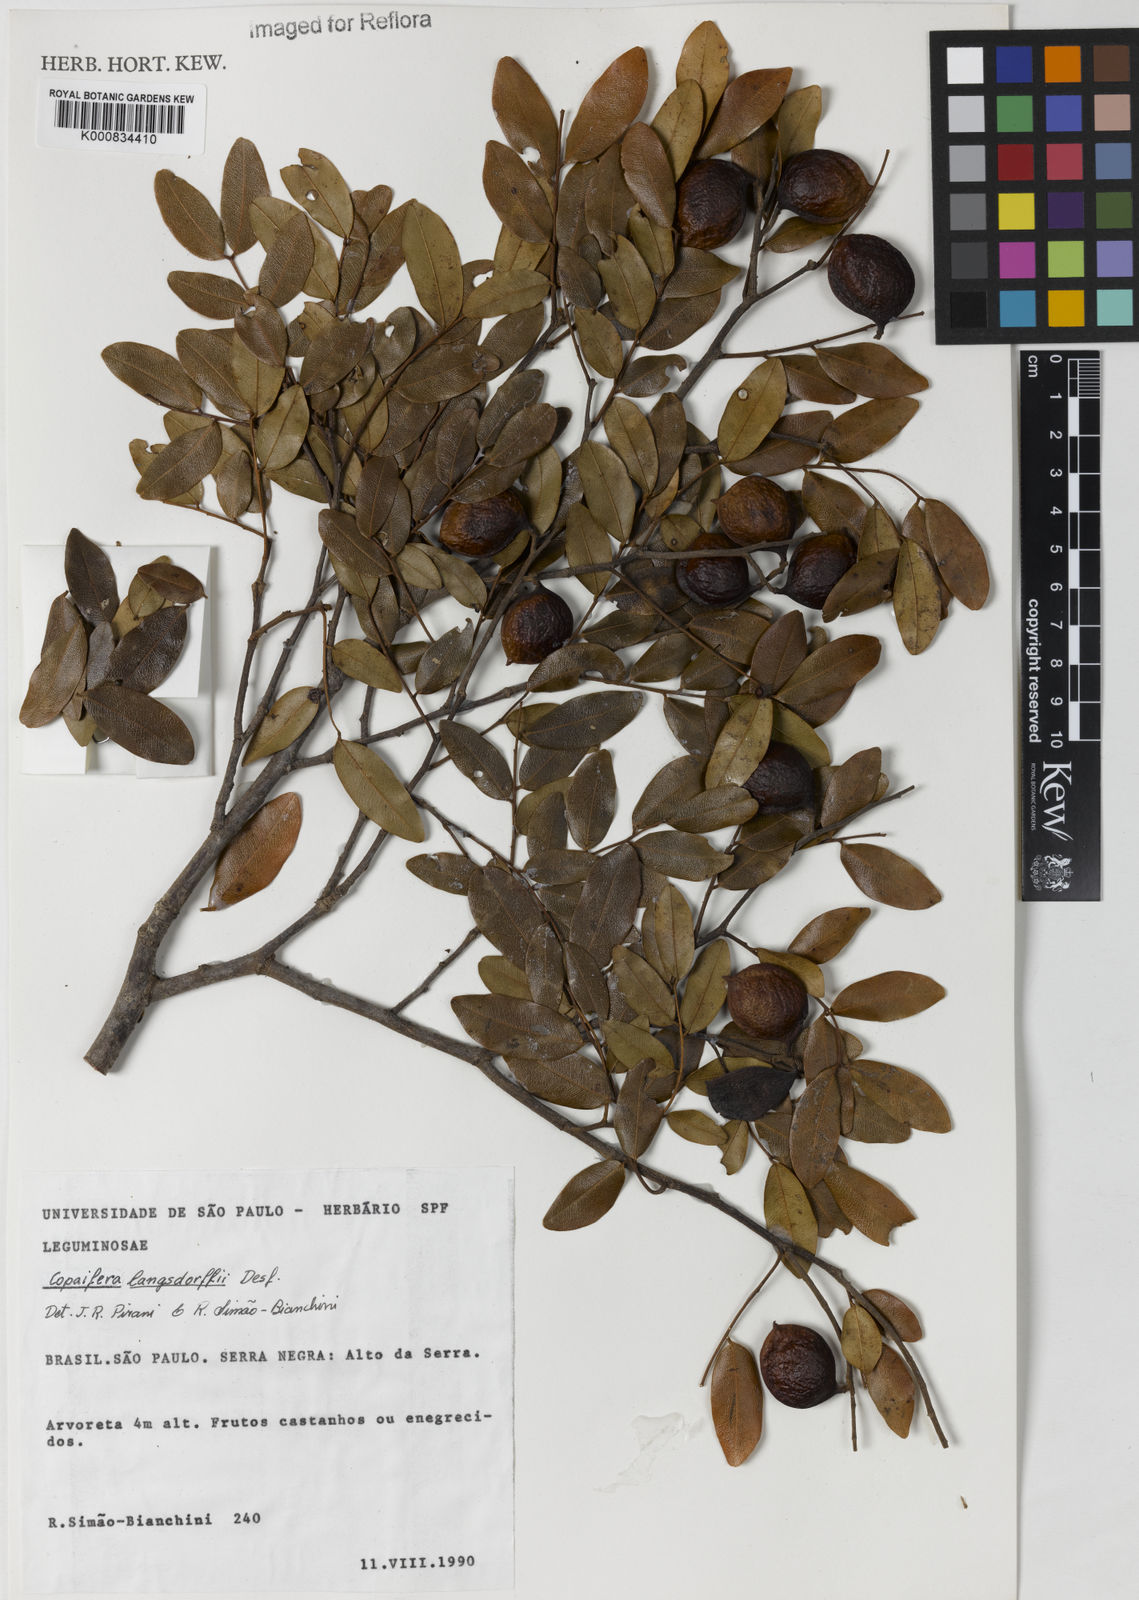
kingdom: Plantae
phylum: Tracheophyta
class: Magnoliopsida
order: Fabales
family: Fabaceae
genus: Copaifera
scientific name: Copaifera langsdorffii
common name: Brazilian diesel tree
